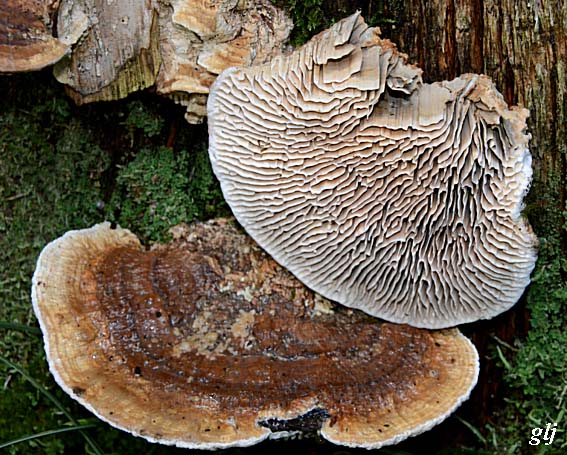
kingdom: Fungi
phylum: Basidiomycota
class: Agaricomycetes
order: Polyporales
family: Fomitopsidaceae
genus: Daedalea
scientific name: Daedalea quercina
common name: ege-labyrintsvamp
